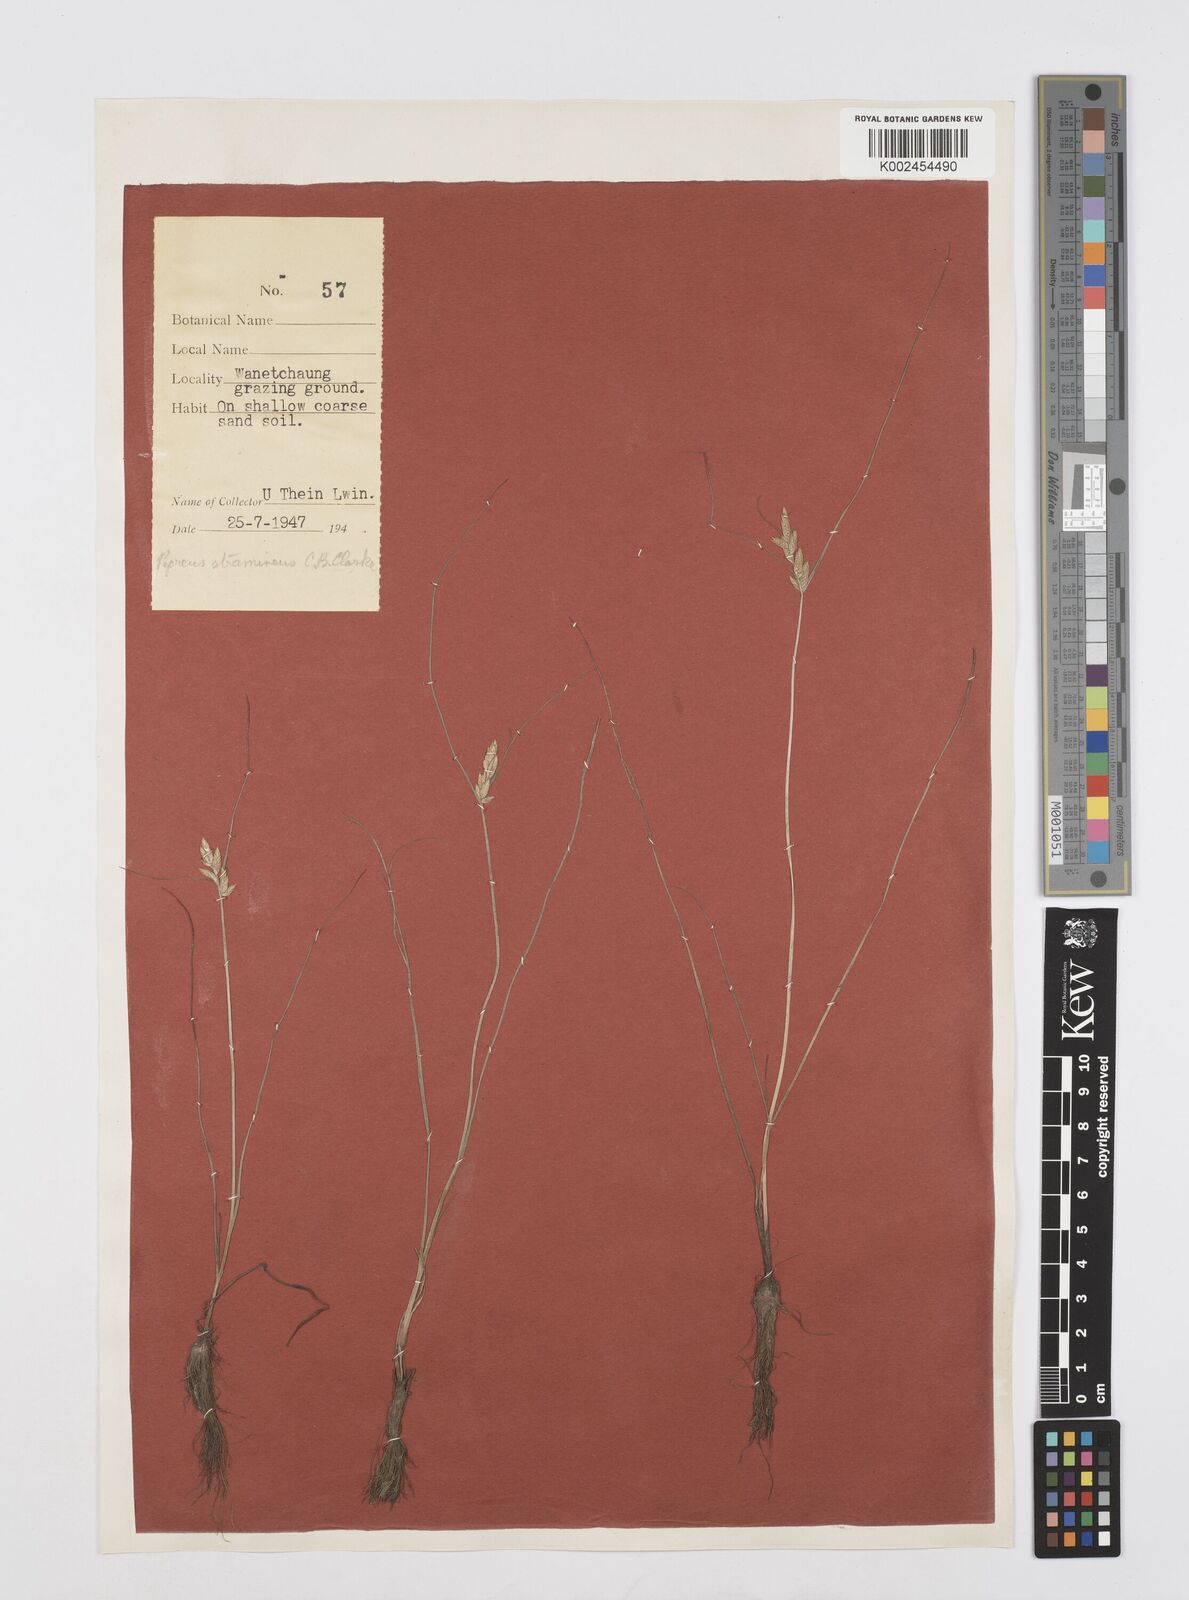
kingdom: Plantae
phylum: Tracheophyta
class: Liliopsida
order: Poales
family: Cyperaceae
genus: Cyperus
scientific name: Cyperus substramineus
